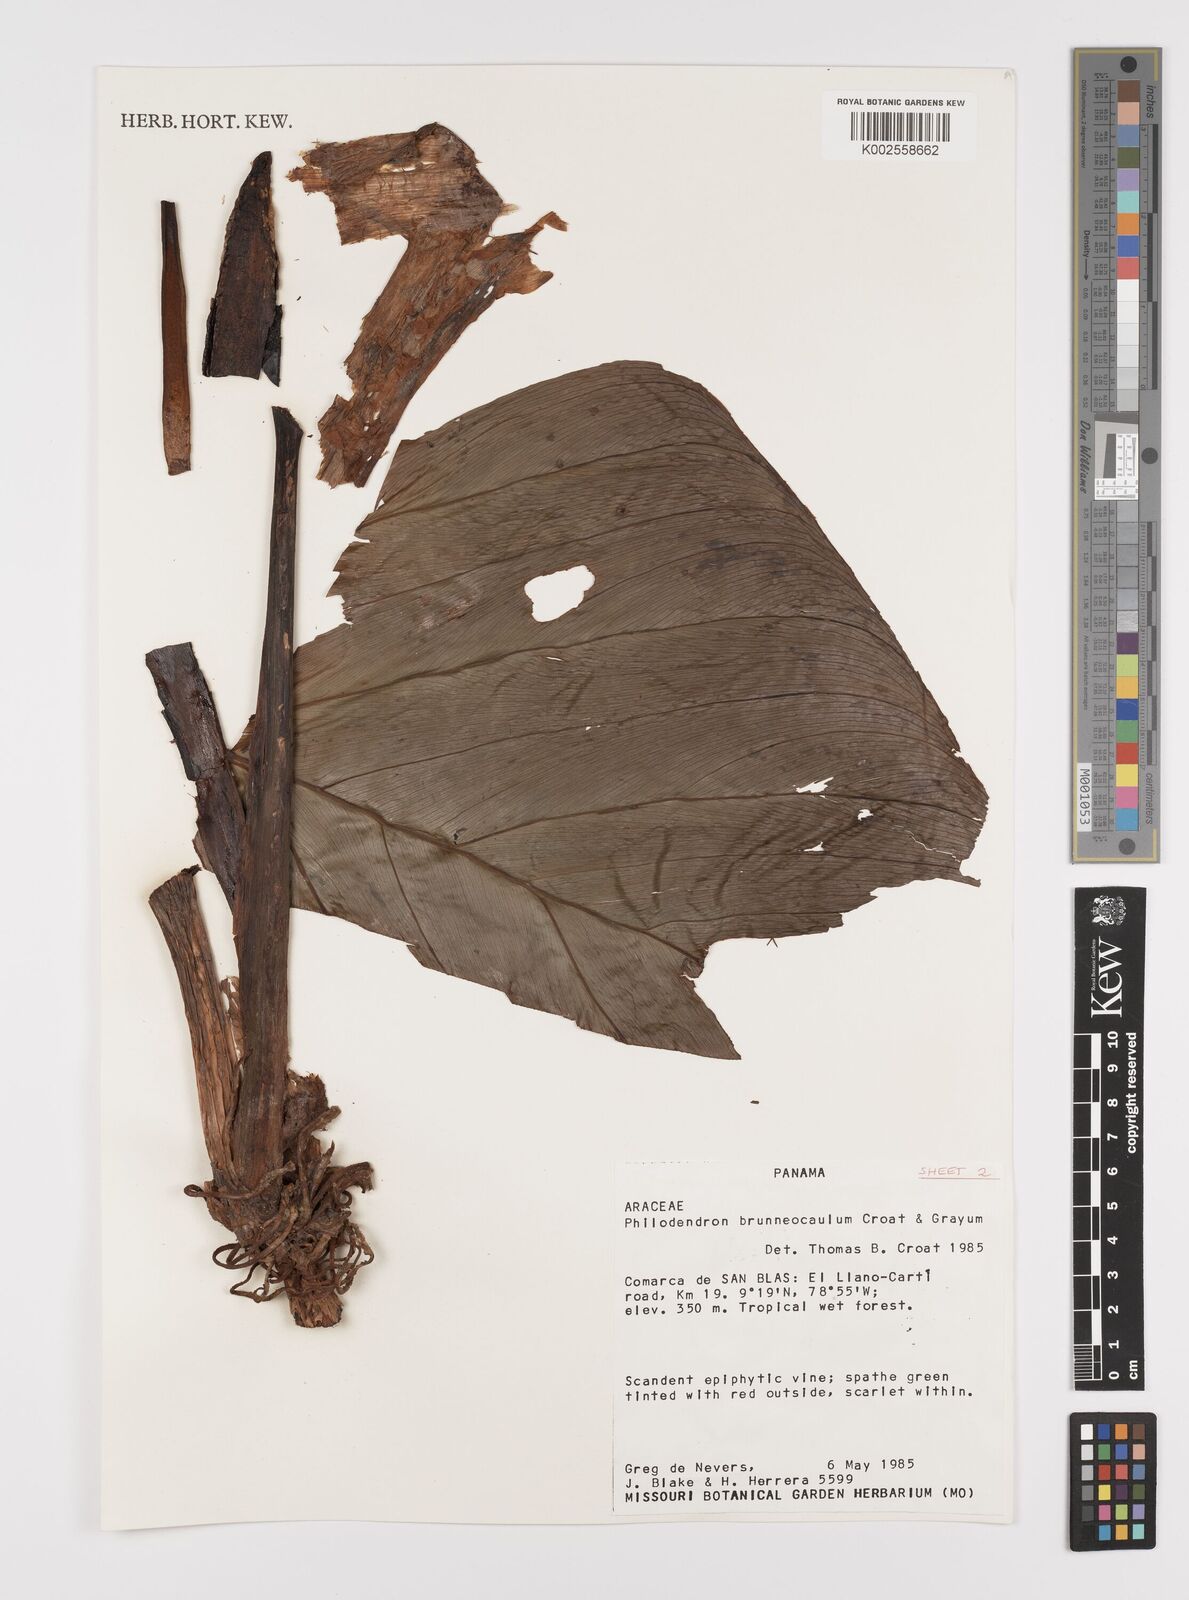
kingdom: Plantae
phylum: Tracheophyta
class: Liliopsida
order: Alismatales
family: Araceae
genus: Philodendron
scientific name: Philodendron brunneicaule
